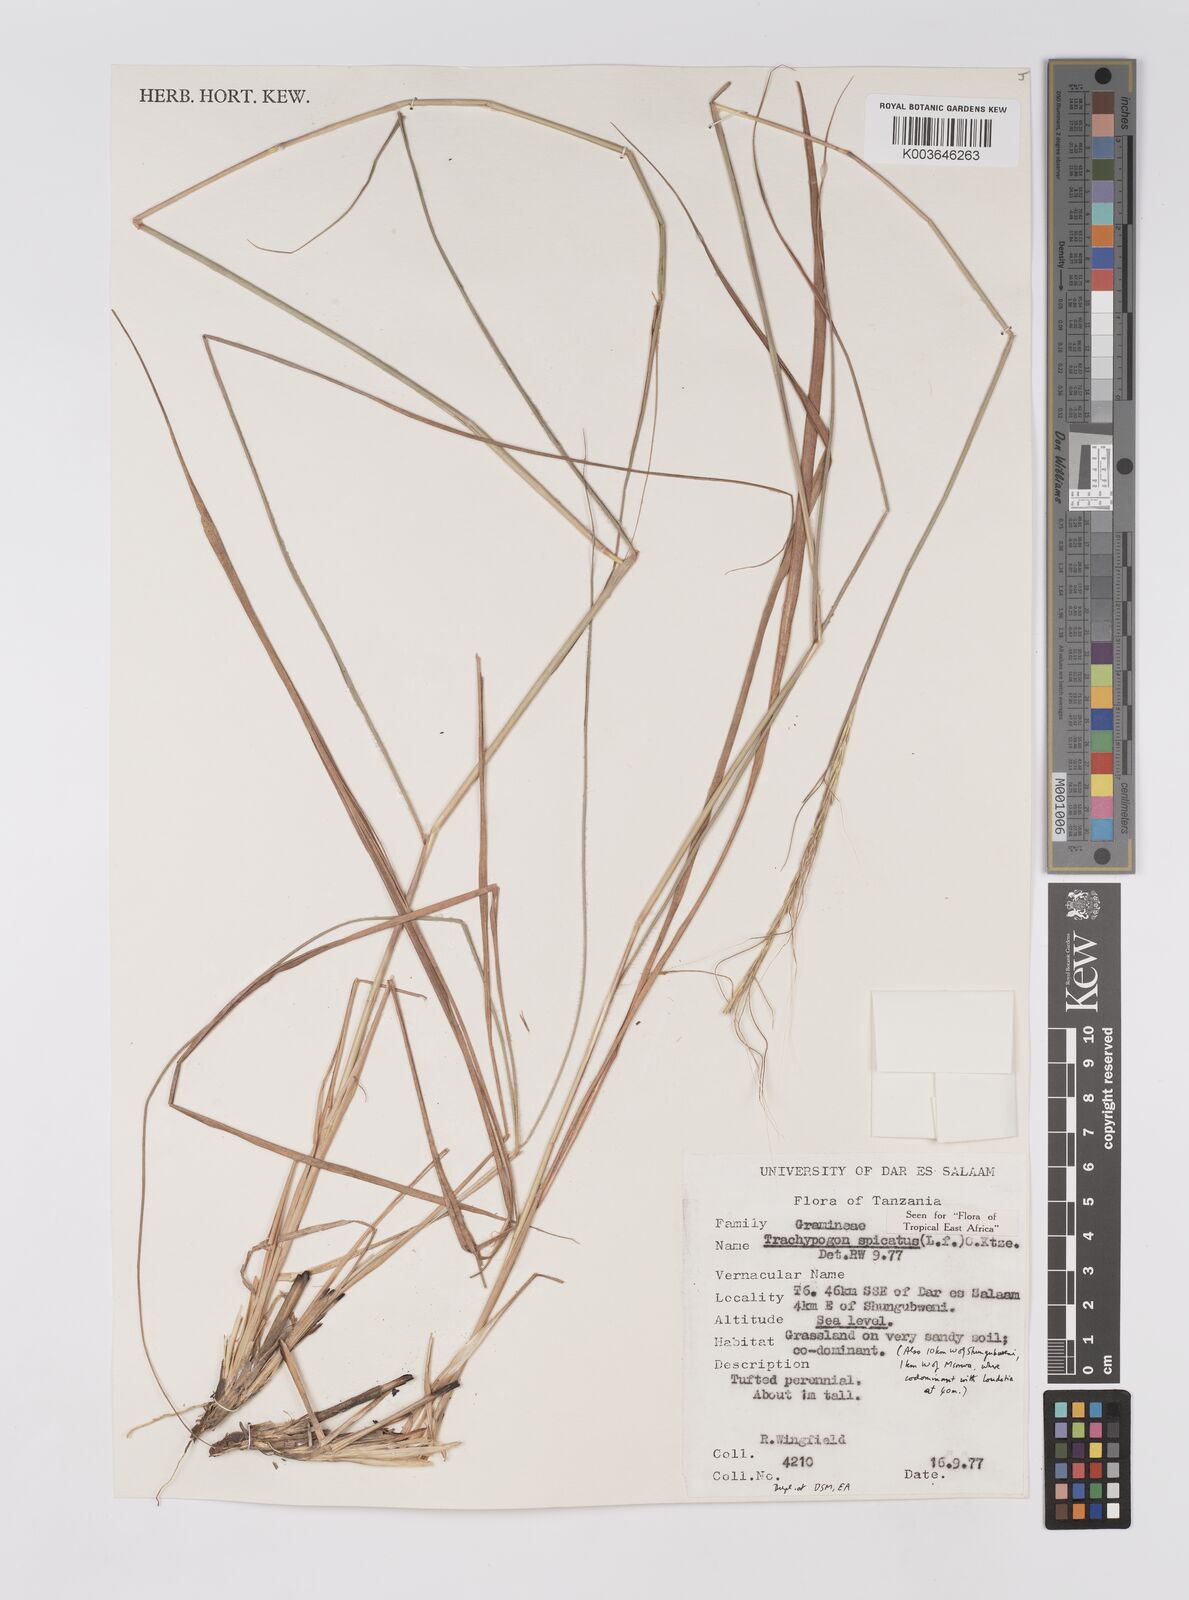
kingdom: Plantae
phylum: Tracheophyta
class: Liliopsida
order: Poales
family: Poaceae
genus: Trachypogon
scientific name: Trachypogon spicatus
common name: Crinkle-awn
